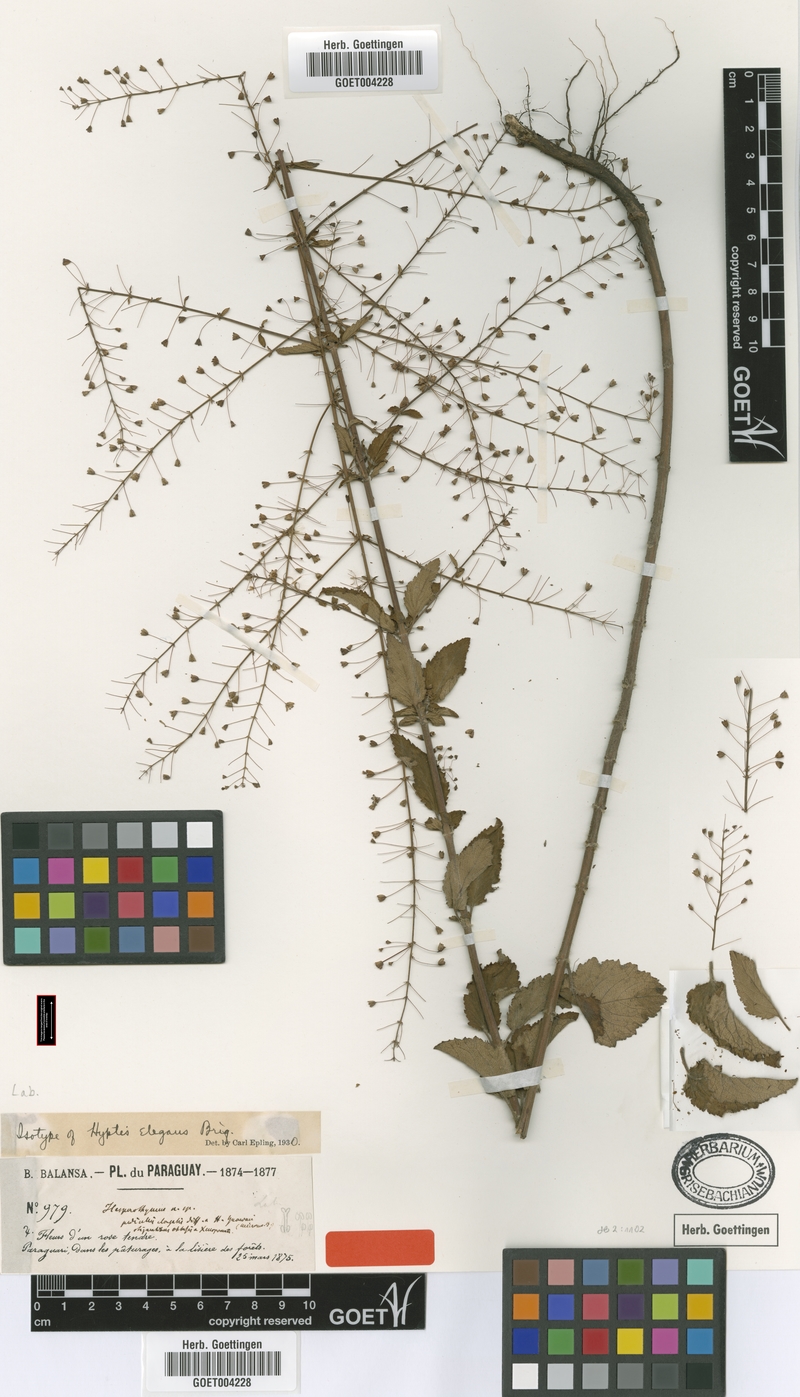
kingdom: Plantae
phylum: Tracheophyta
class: Magnoliopsida
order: Lamiales
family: Lamiaceae
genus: Condea
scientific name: Condea elegans
